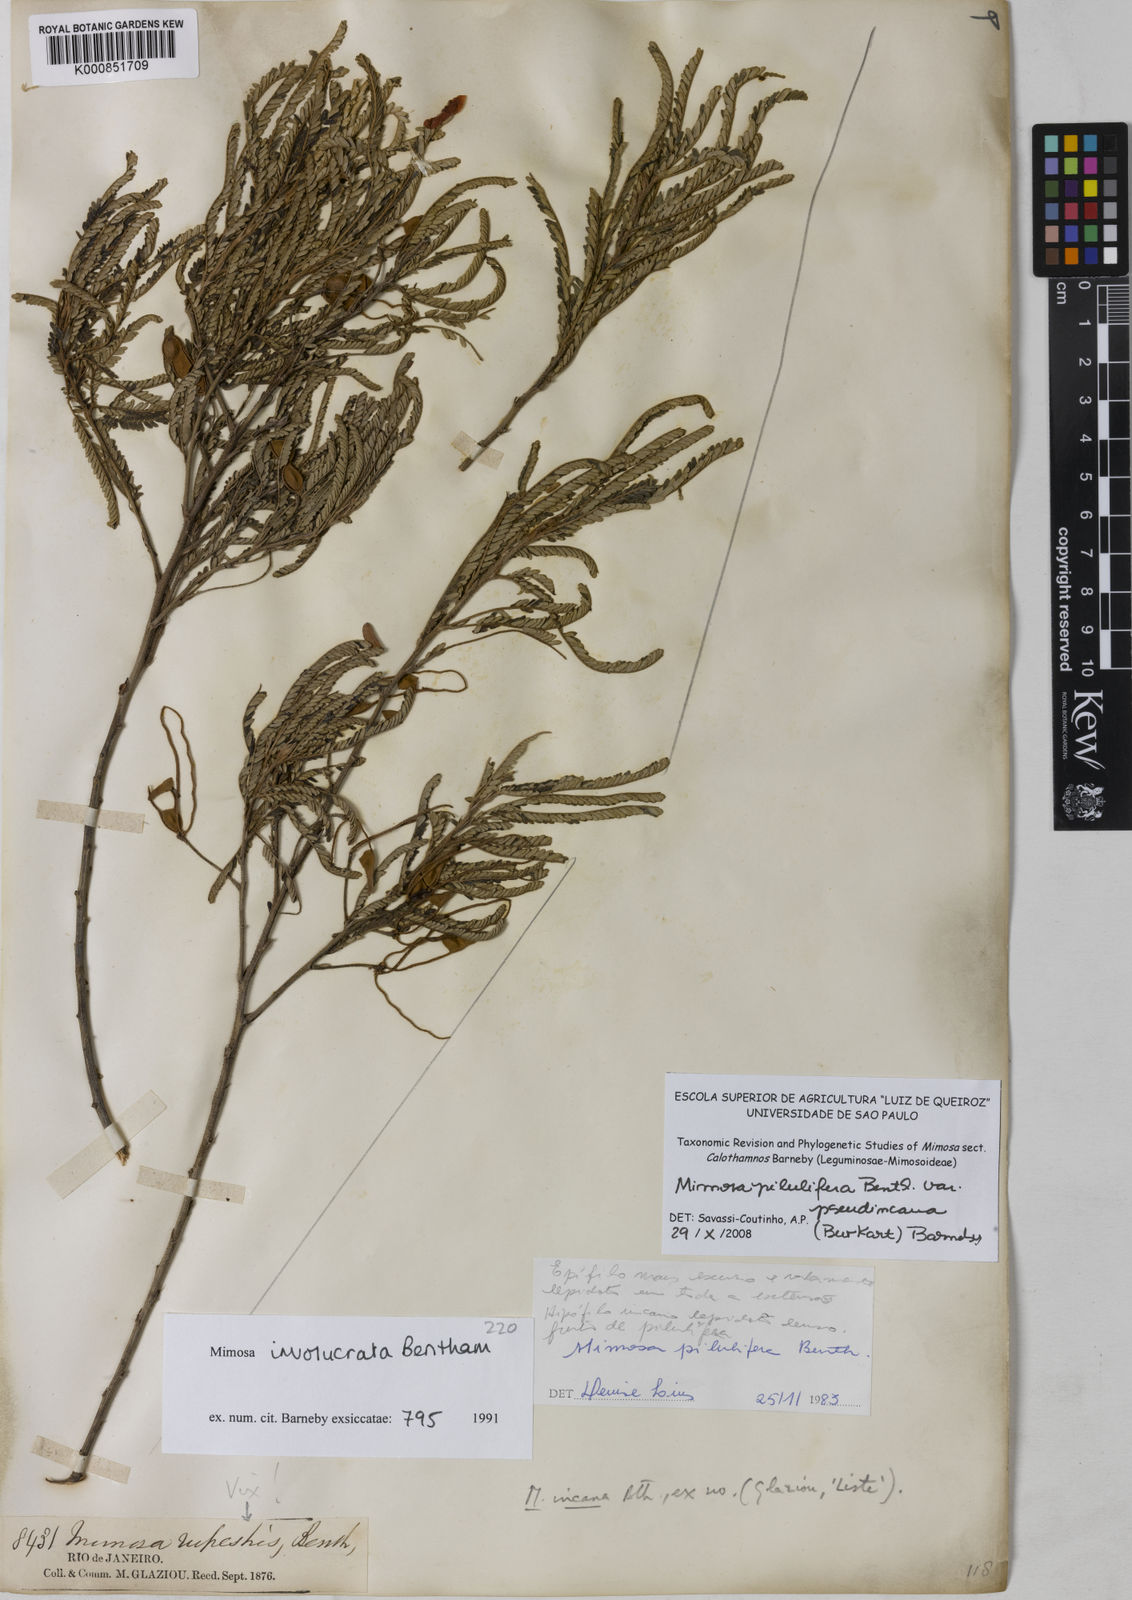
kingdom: Plantae
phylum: Tracheophyta
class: Magnoliopsida
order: Fabales
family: Fabaceae
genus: Mimosa
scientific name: Mimosa pilulifera
